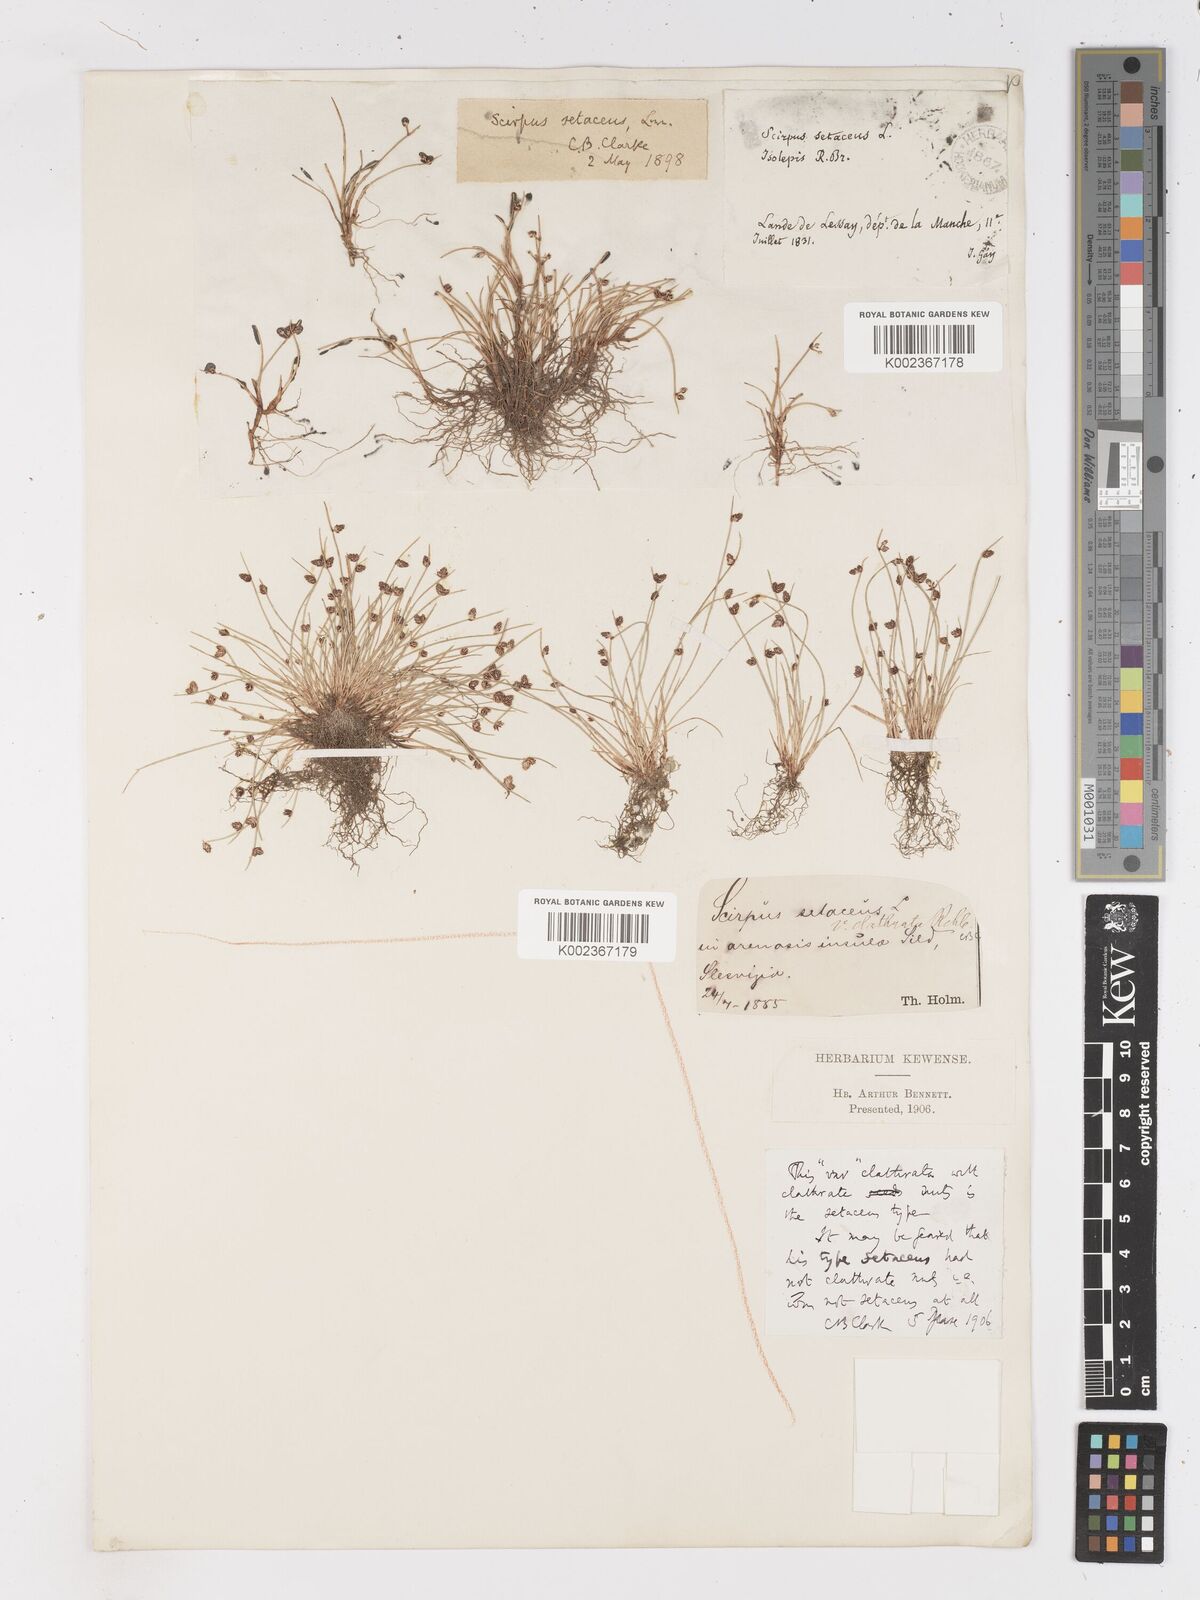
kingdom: Plantae
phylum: Tracheophyta
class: Liliopsida
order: Poales
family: Cyperaceae
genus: Isolepis
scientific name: Isolepis setacea
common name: Bristle club-rush
